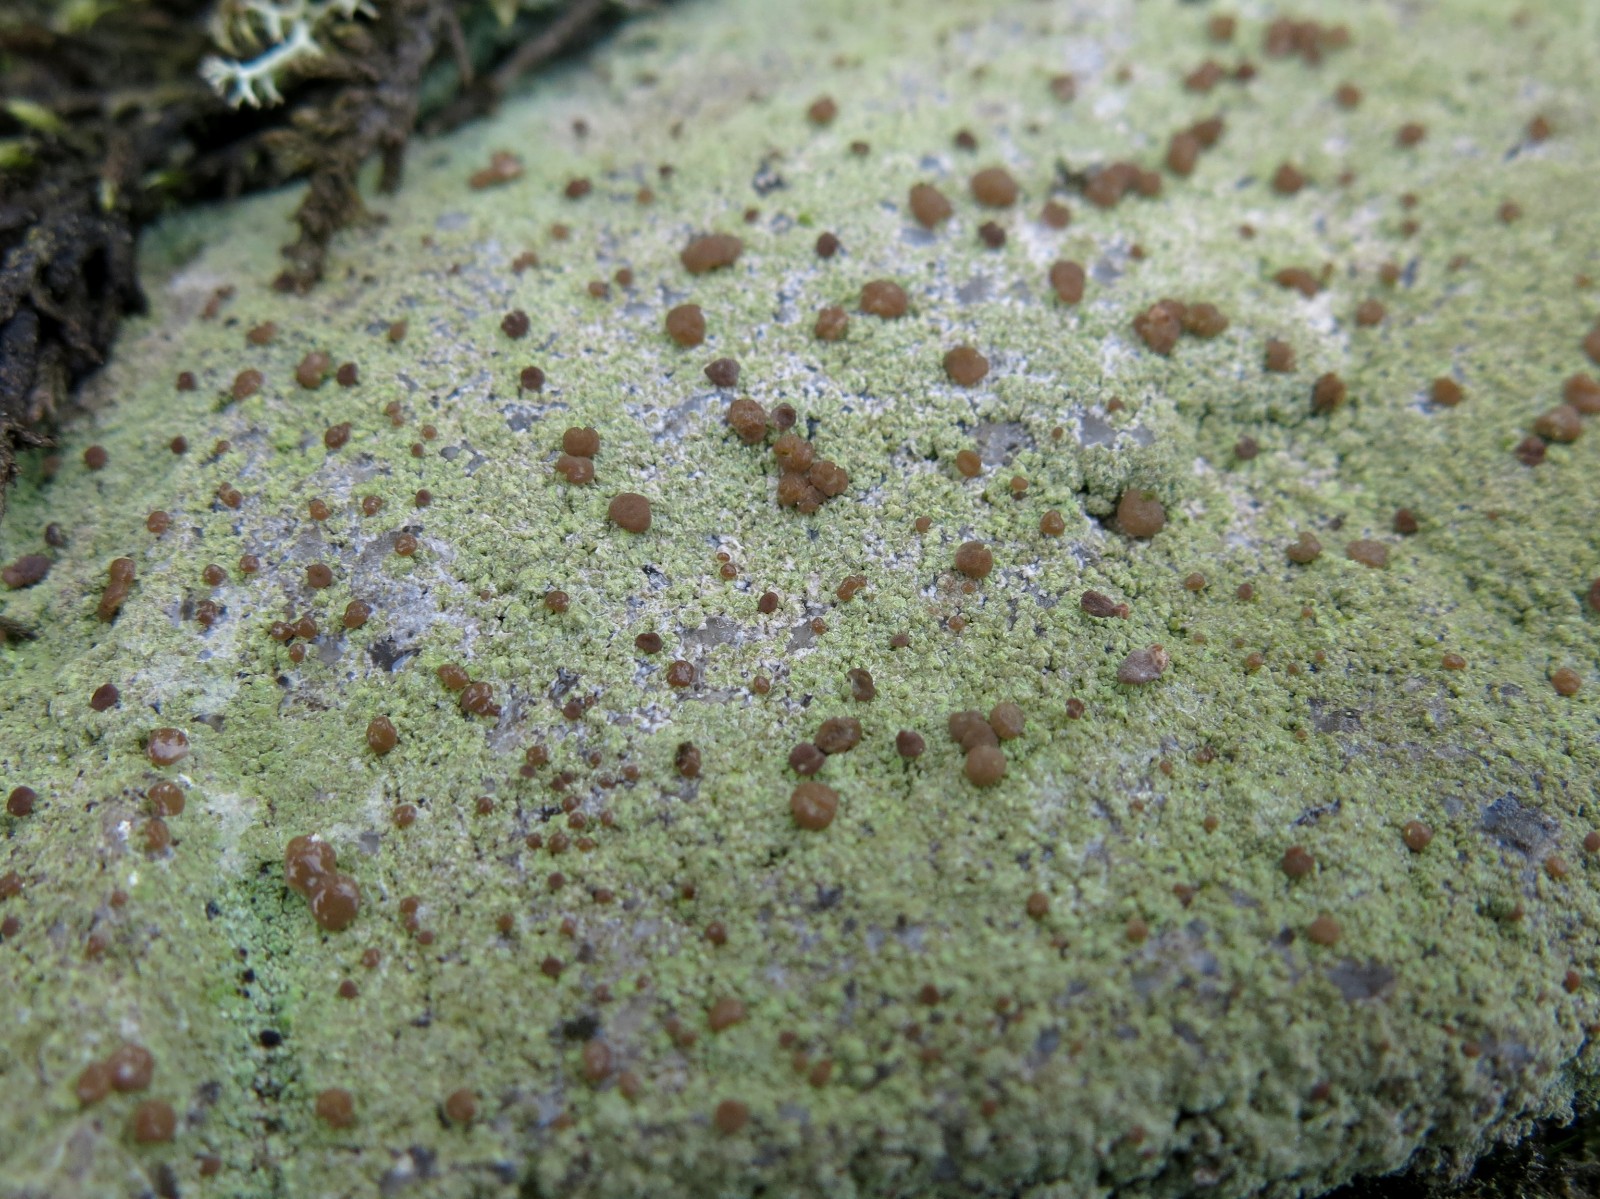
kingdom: Fungi
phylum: Ascomycota
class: Lecanoromycetes
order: Baeomycetales
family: Baeomycetaceae
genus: Baeomyces
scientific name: Baeomyces rufus
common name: rødbrun svampelav
